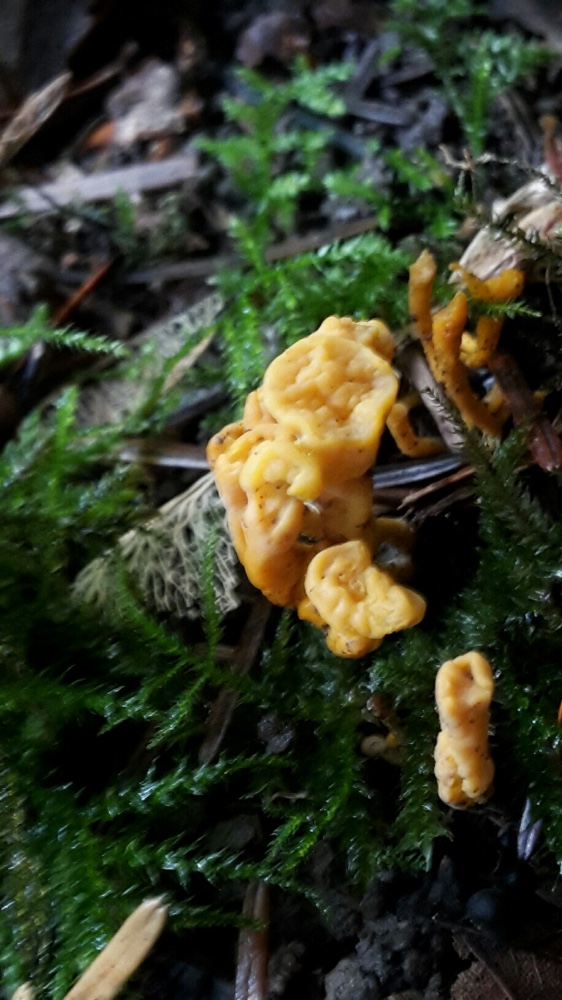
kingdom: Fungi
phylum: Basidiomycota
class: Agaricomycetes
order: Agaricales
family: Clavariaceae
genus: Clavulinopsis
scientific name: Clavulinopsis
